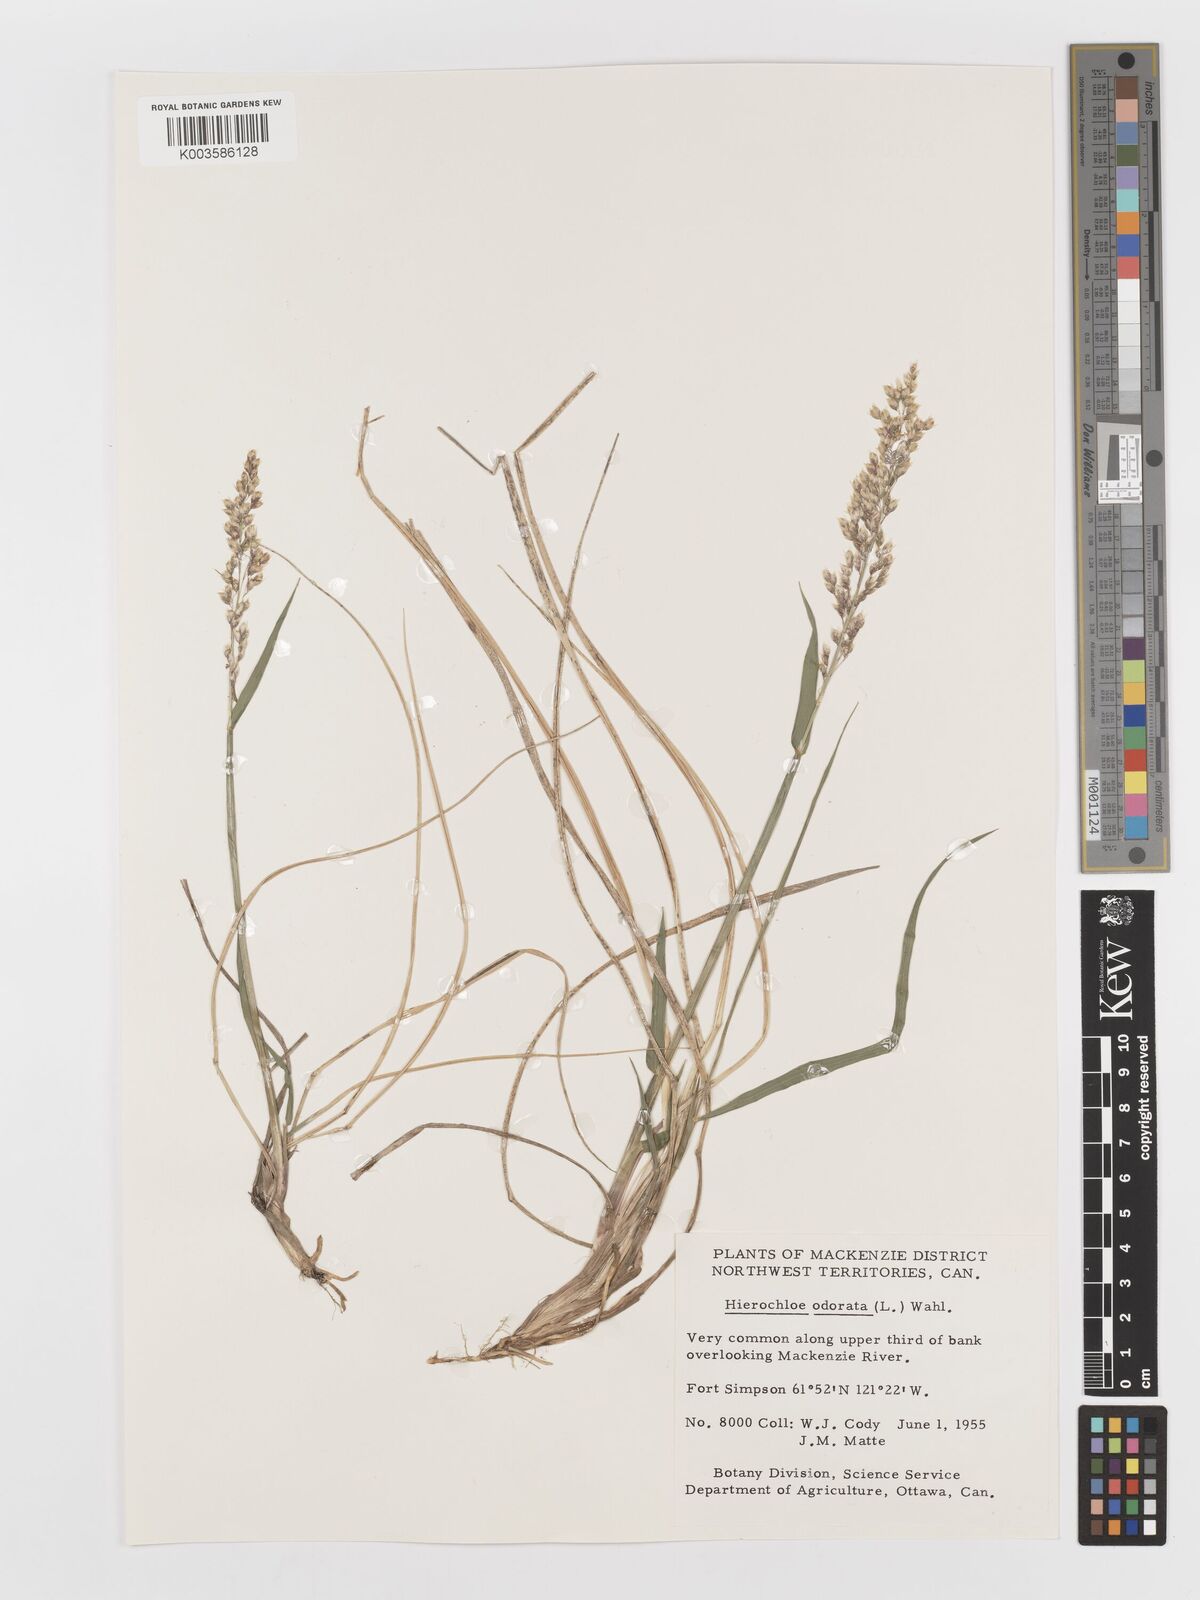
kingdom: Plantae
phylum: Tracheophyta
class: Liliopsida
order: Poales
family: Poaceae
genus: Anthoxanthum
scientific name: Anthoxanthum nitens
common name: Holy grass
